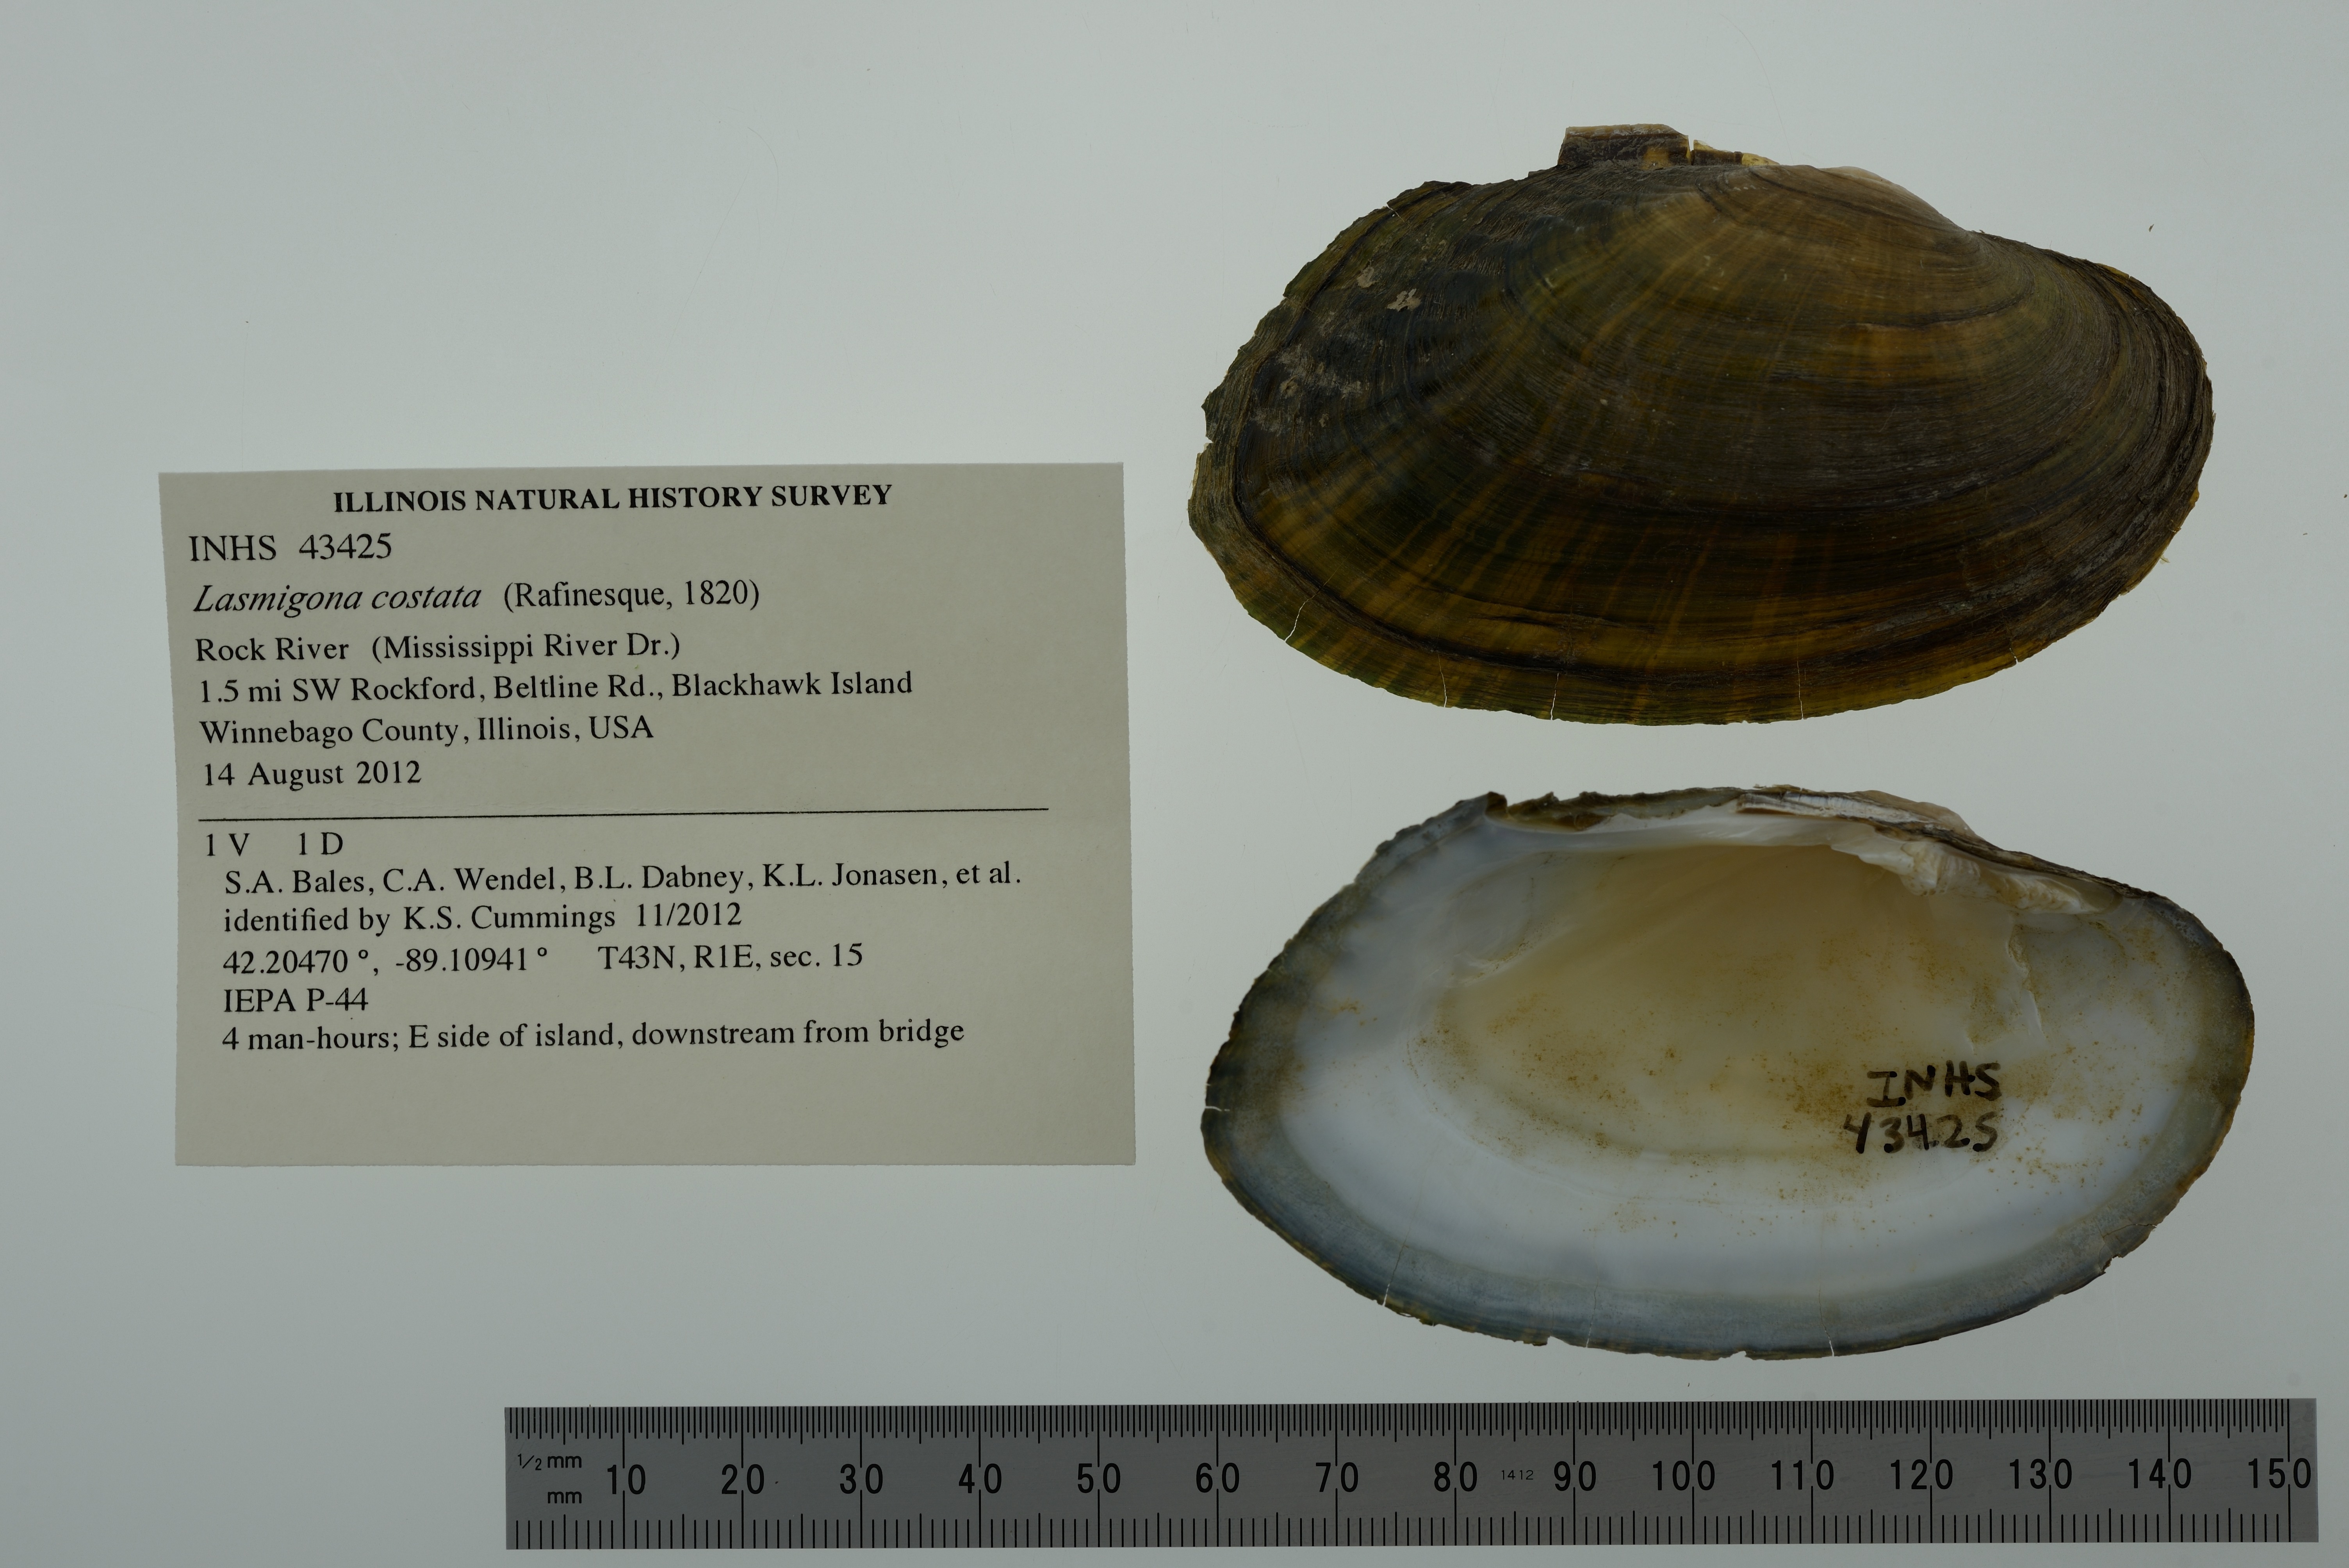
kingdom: Animalia
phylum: Mollusca
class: Bivalvia
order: Unionida
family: Unionidae
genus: Lasmigona
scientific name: Lasmigona costata
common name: Flutedshell
